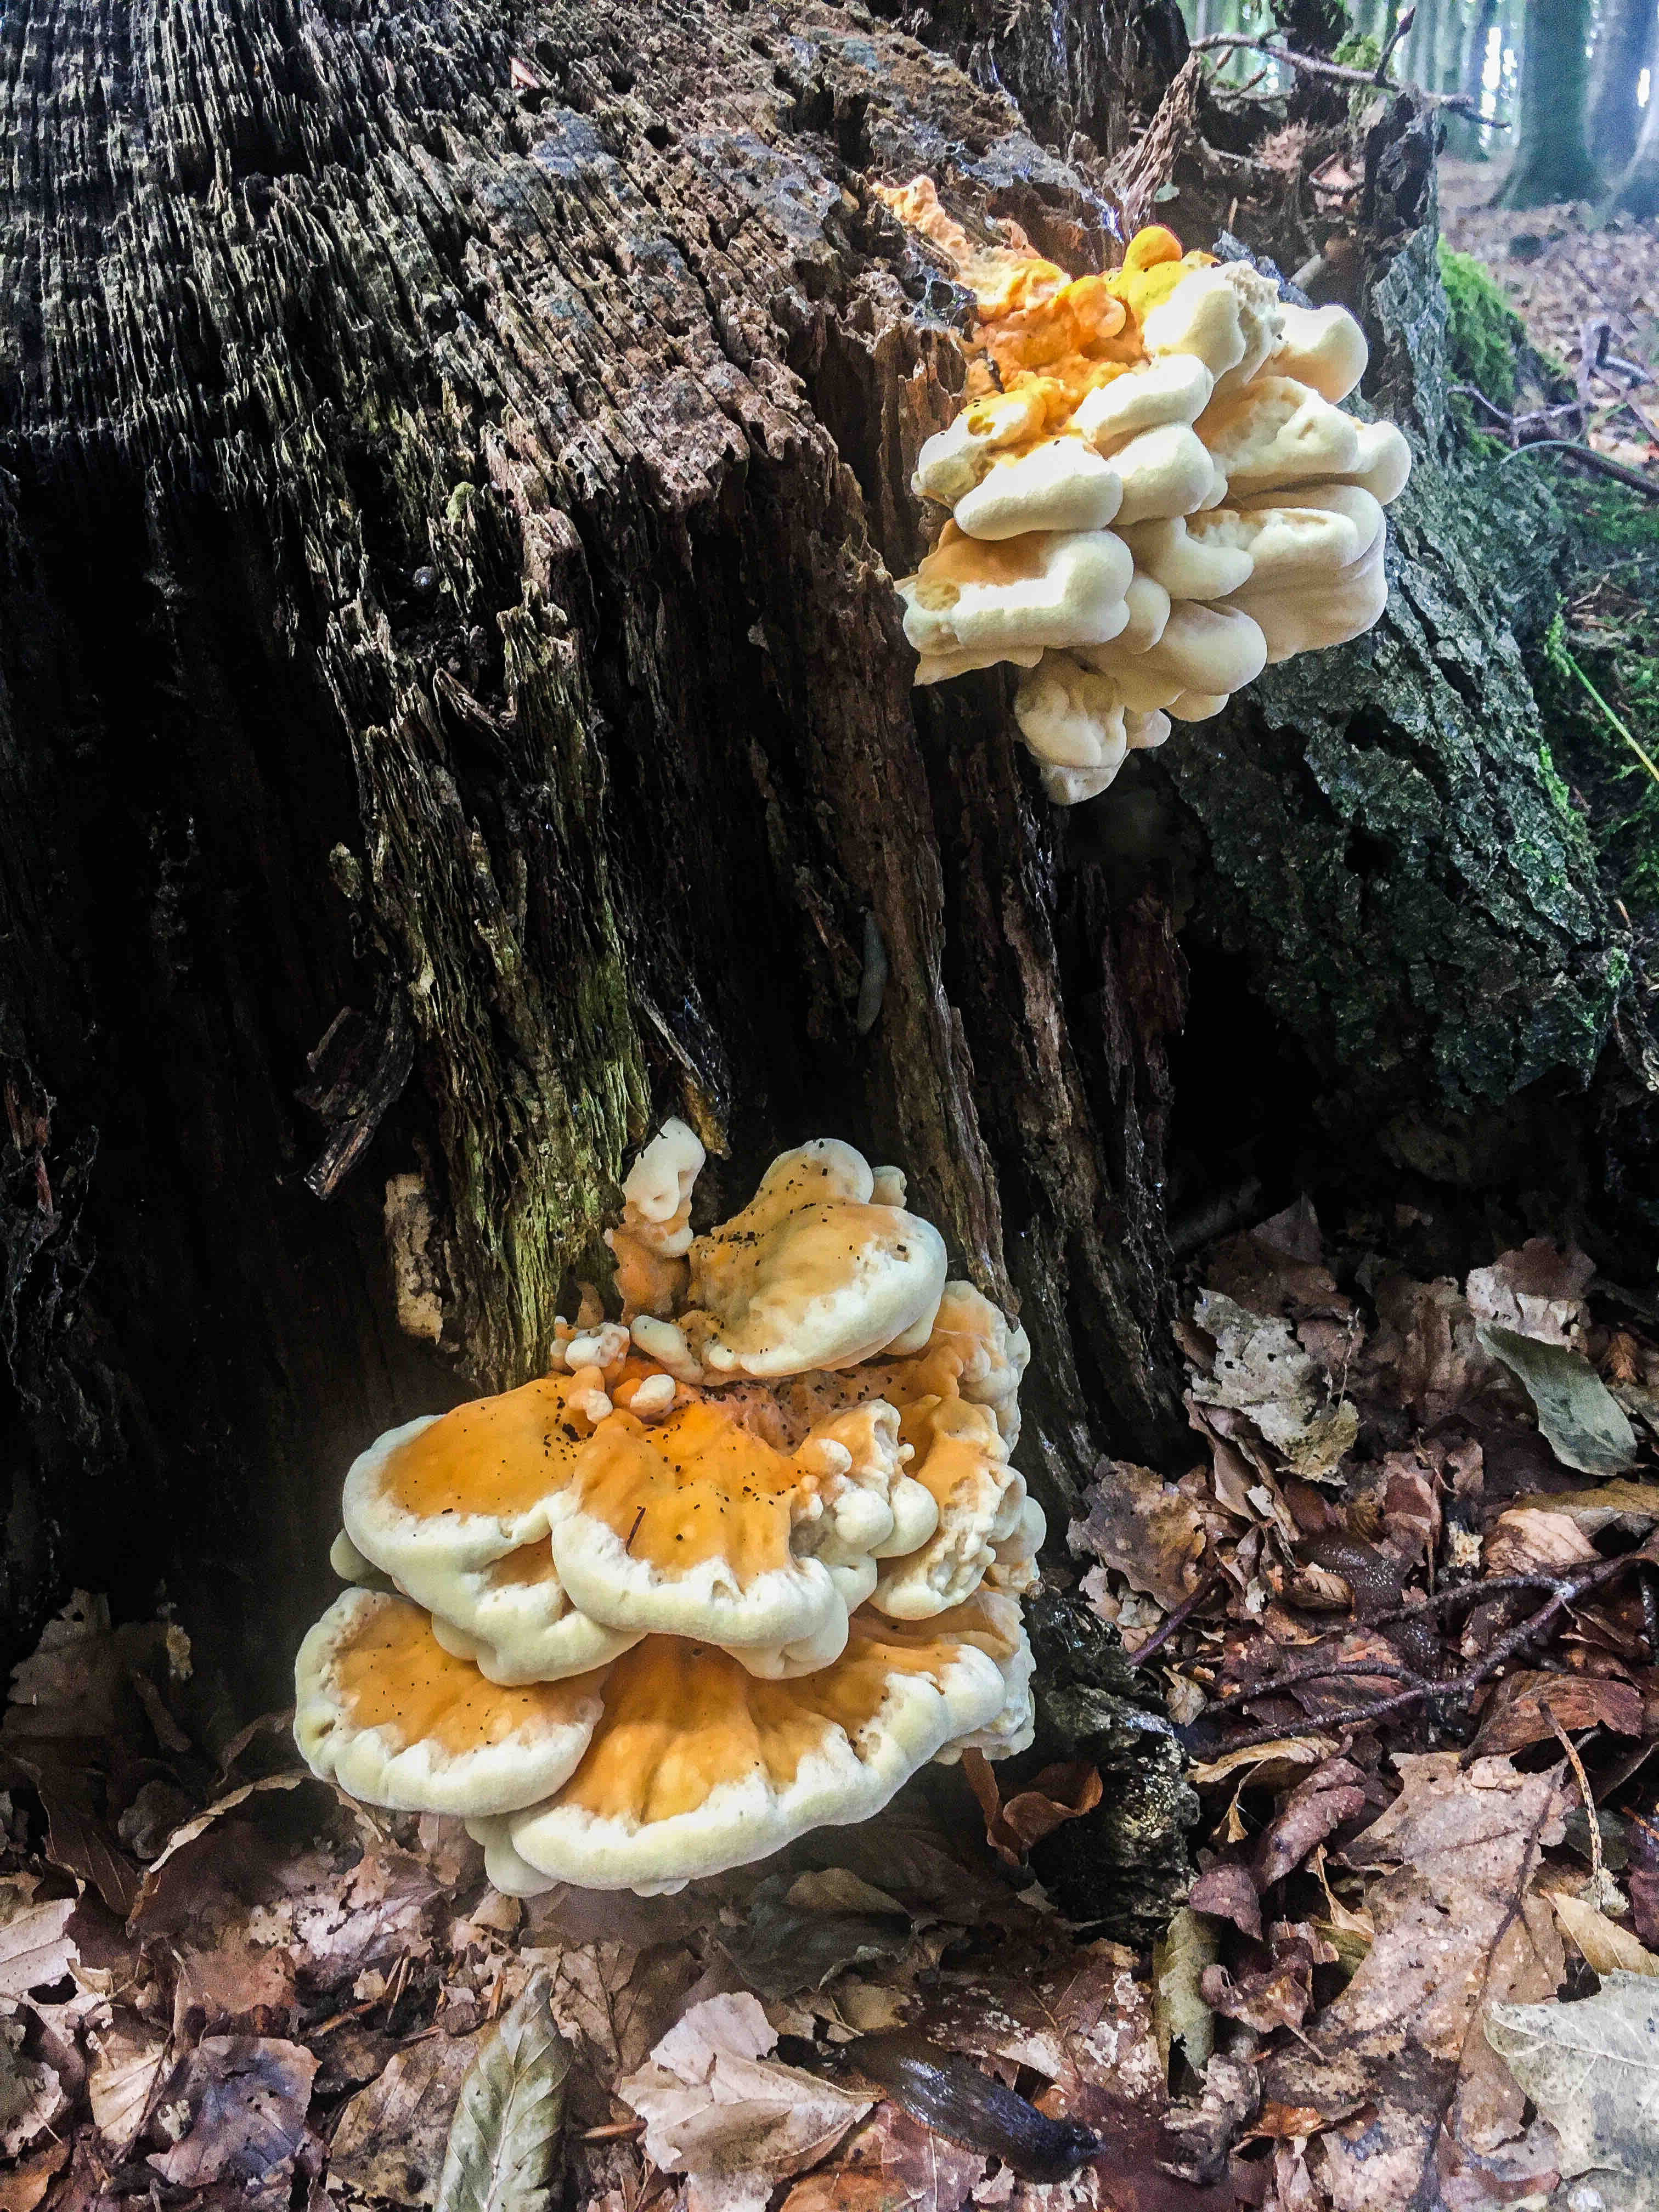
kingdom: Fungi
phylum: Basidiomycota
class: Agaricomycetes
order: Polyporales
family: Laetiporaceae
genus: Laetiporus
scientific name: Laetiporus sulphureus
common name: svovlporesvamp
